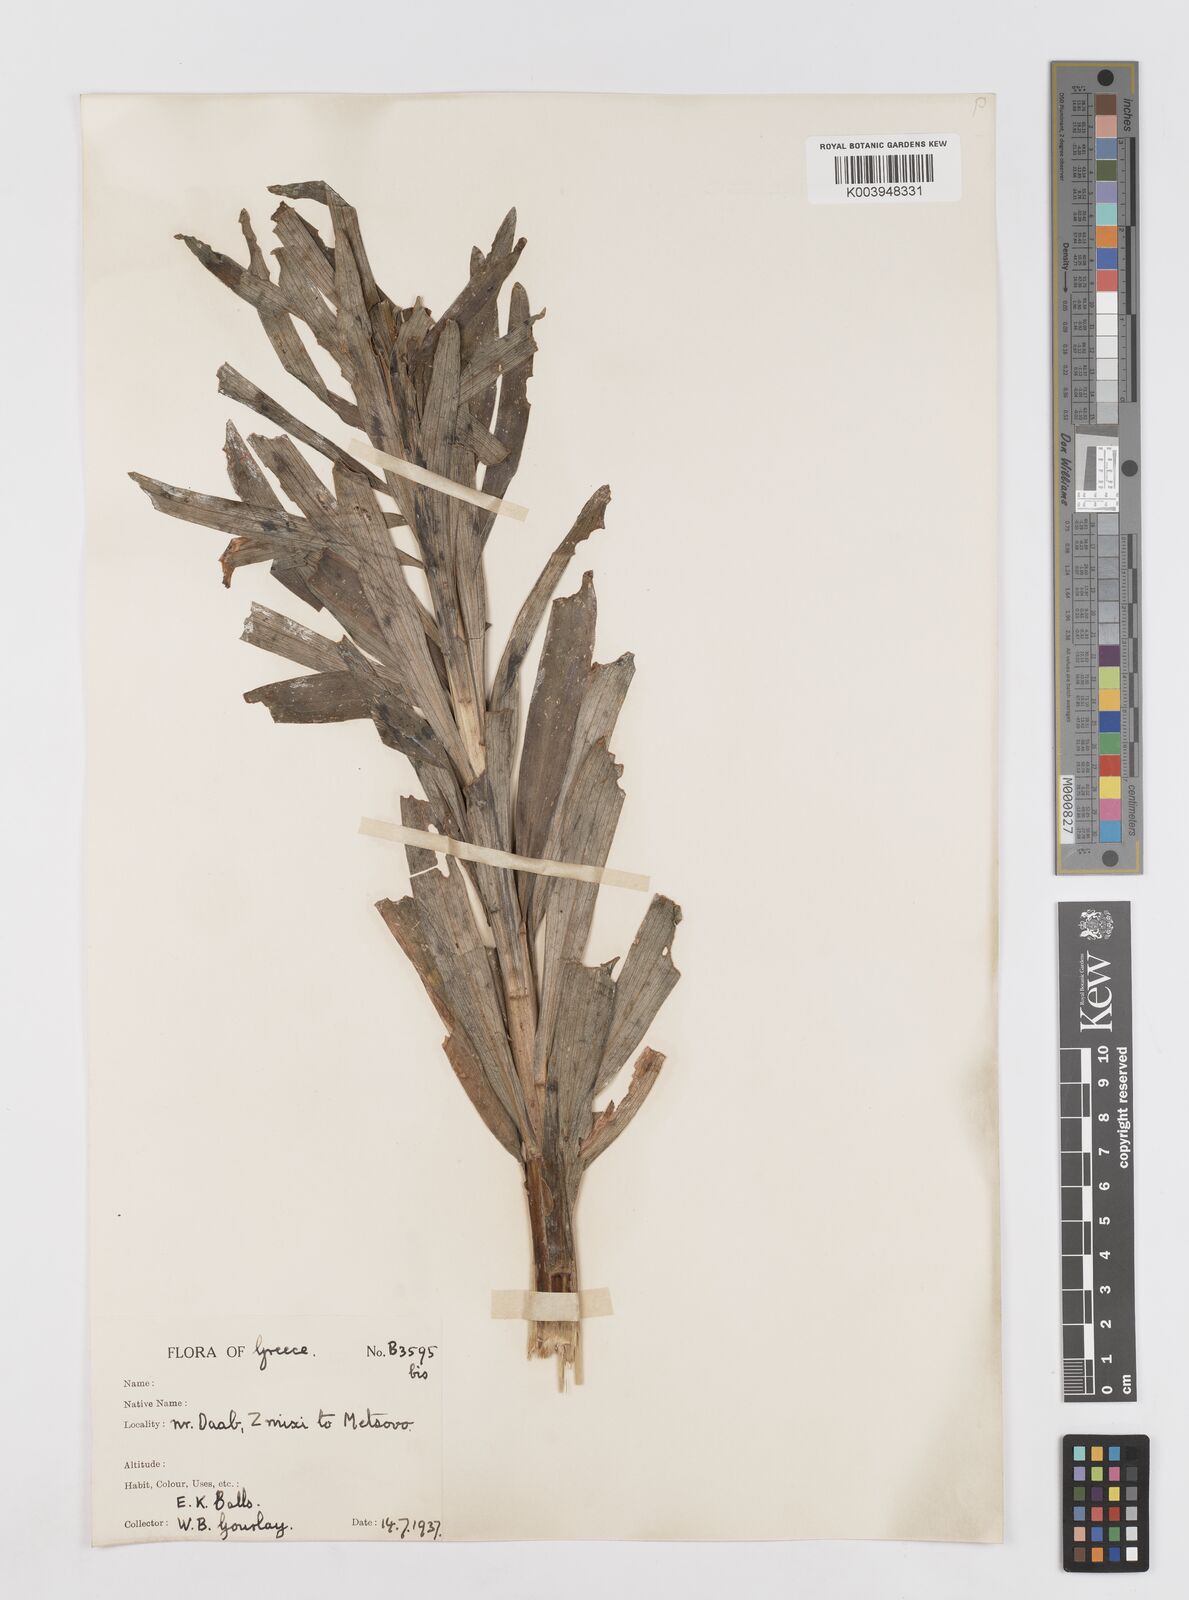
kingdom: Plantae
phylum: Tracheophyta
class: Liliopsida
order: Liliales
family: Liliaceae
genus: Lilium
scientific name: Lilium chalcedonicum
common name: Red martagon of constantinople
